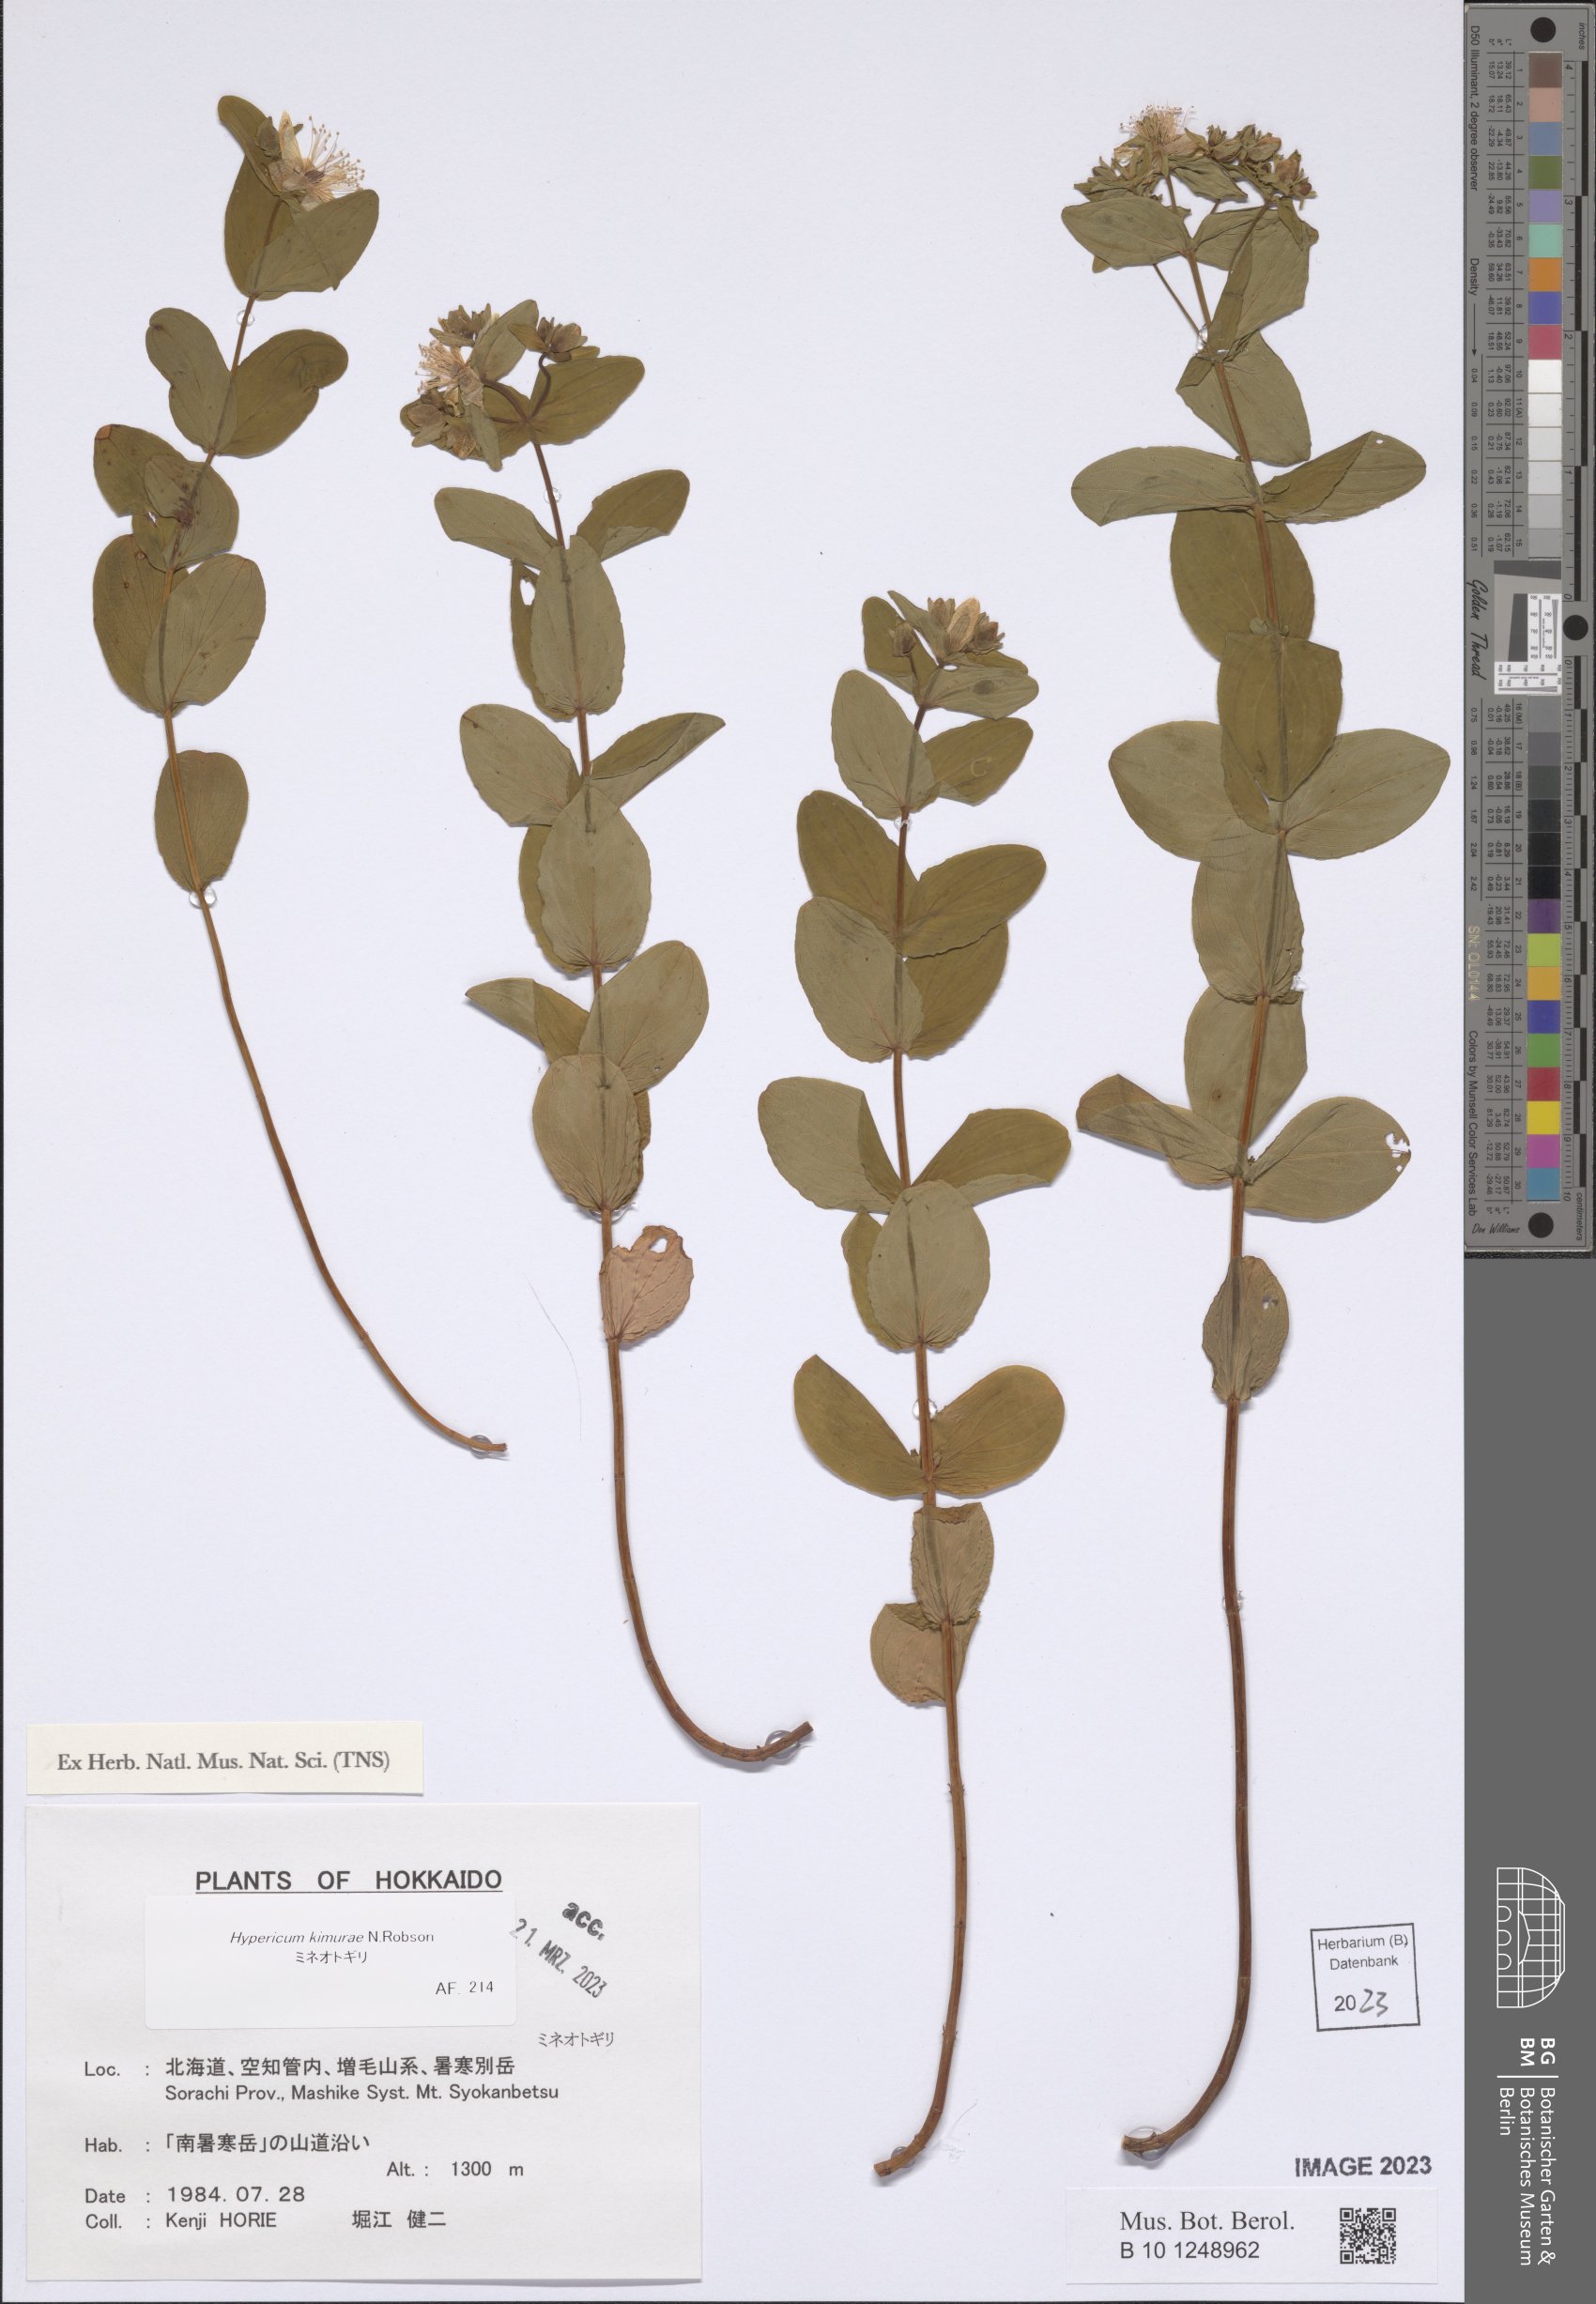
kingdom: Plantae
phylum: Tracheophyta
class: Magnoliopsida
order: Malpighiales
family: Hypericaceae
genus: Hypericum
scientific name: Hypericum kimurae
